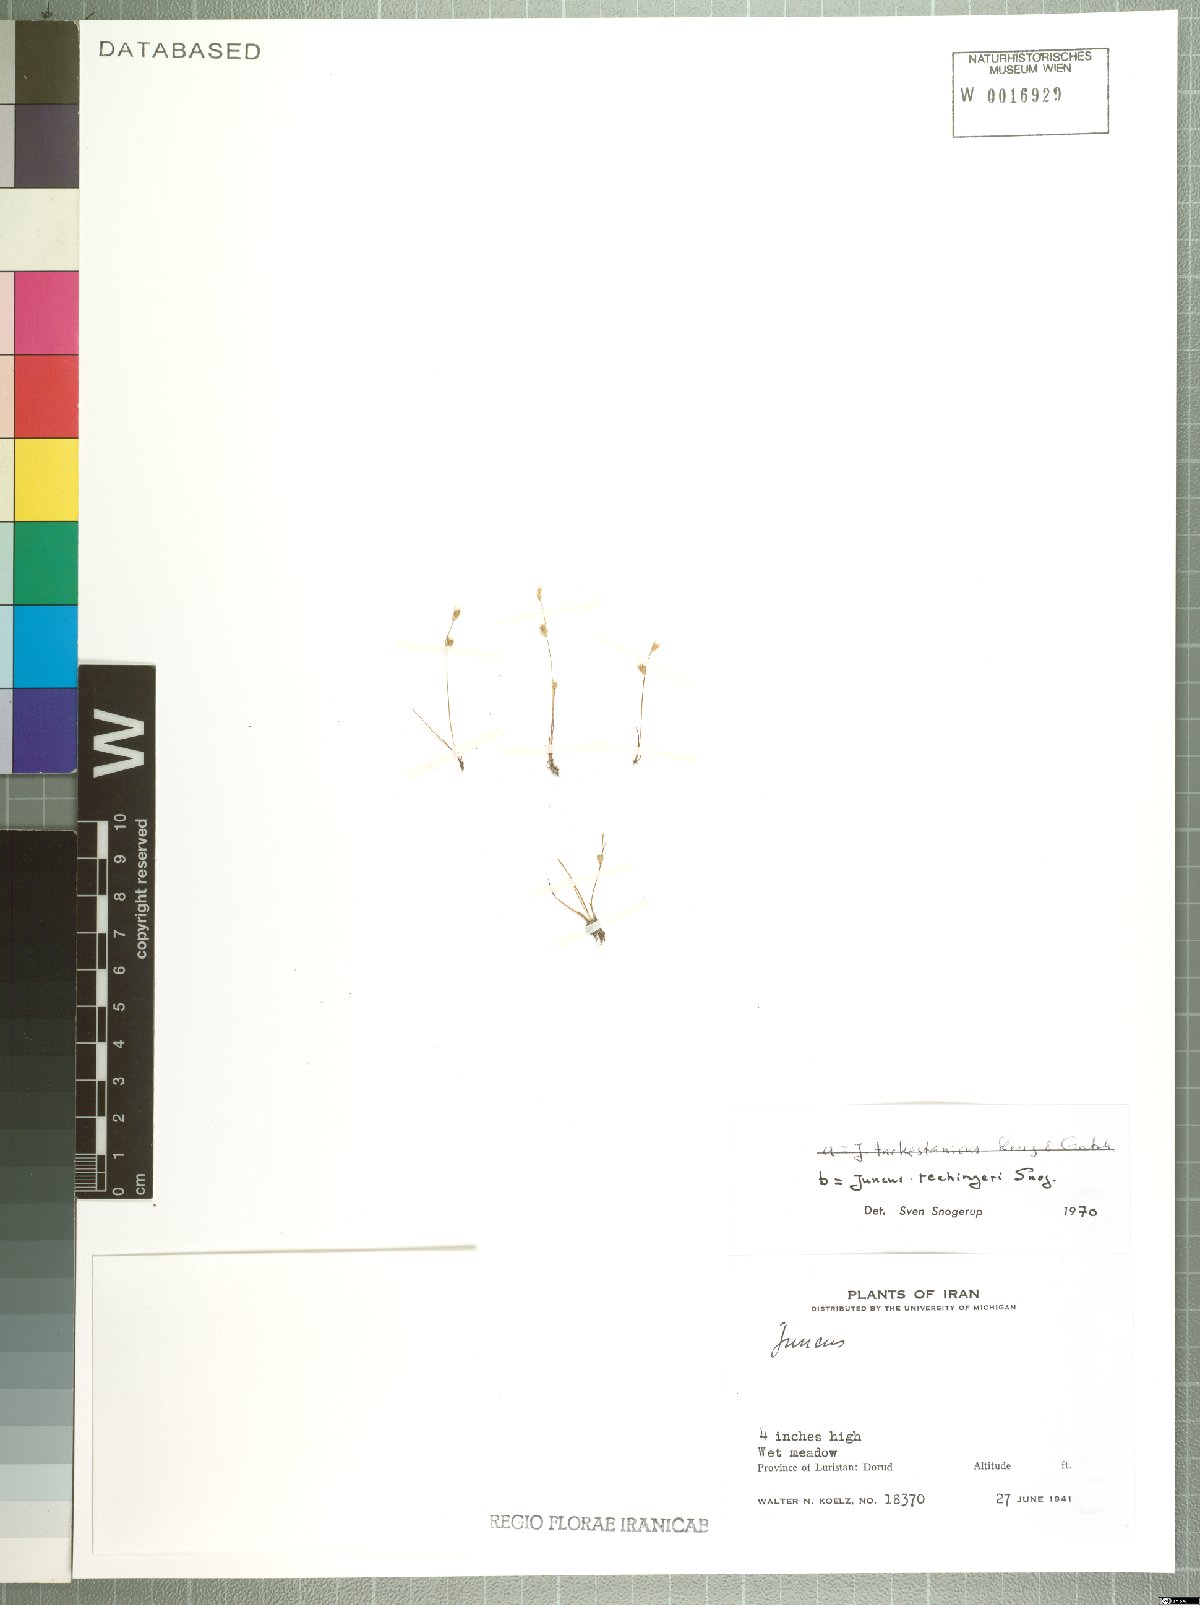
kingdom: Plantae
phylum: Tracheophyta
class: Liliopsida
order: Poales
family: Juncaceae
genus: Juncus
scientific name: Juncus rechingeri
